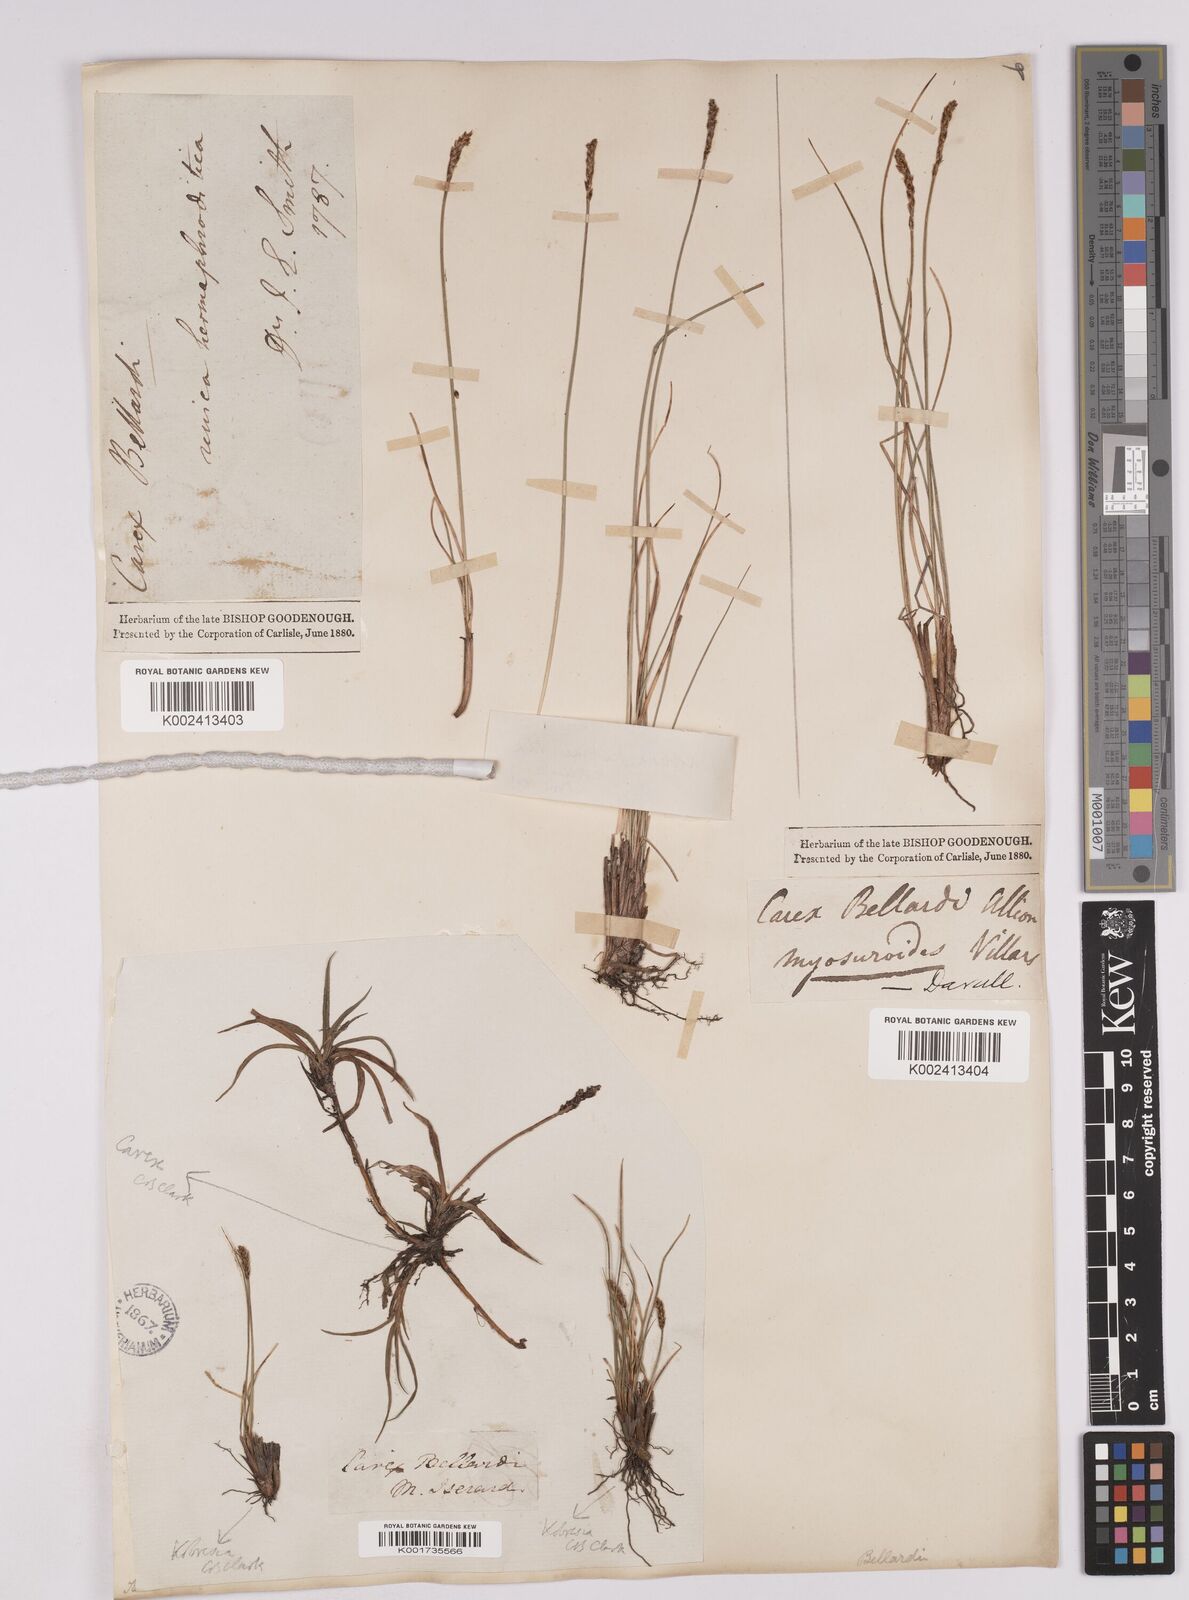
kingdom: Plantae
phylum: Tracheophyta
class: Liliopsida
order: Poales
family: Cyperaceae
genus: Carex
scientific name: Carex myosuroides
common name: Bellard's bog sedge
